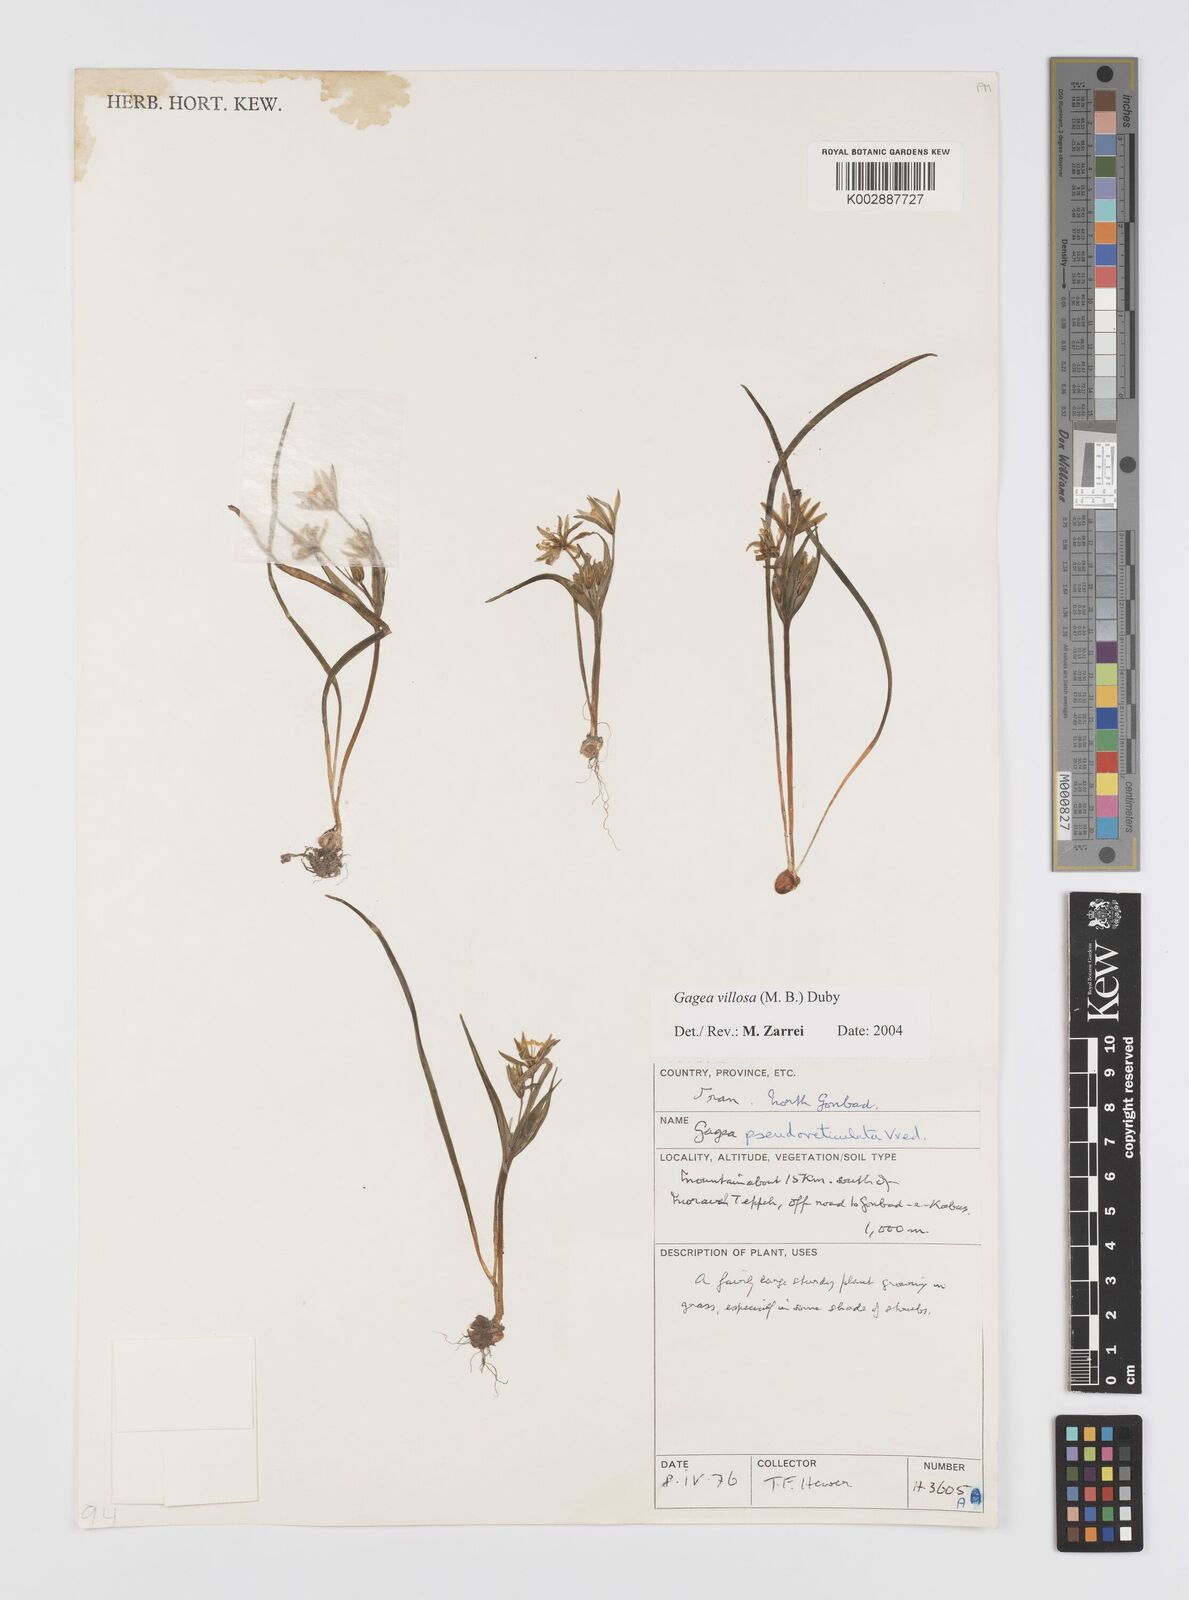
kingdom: Plantae
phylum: Tracheophyta
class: Liliopsida
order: Liliales
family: Liliaceae
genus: Gagea
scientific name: Gagea villosa
